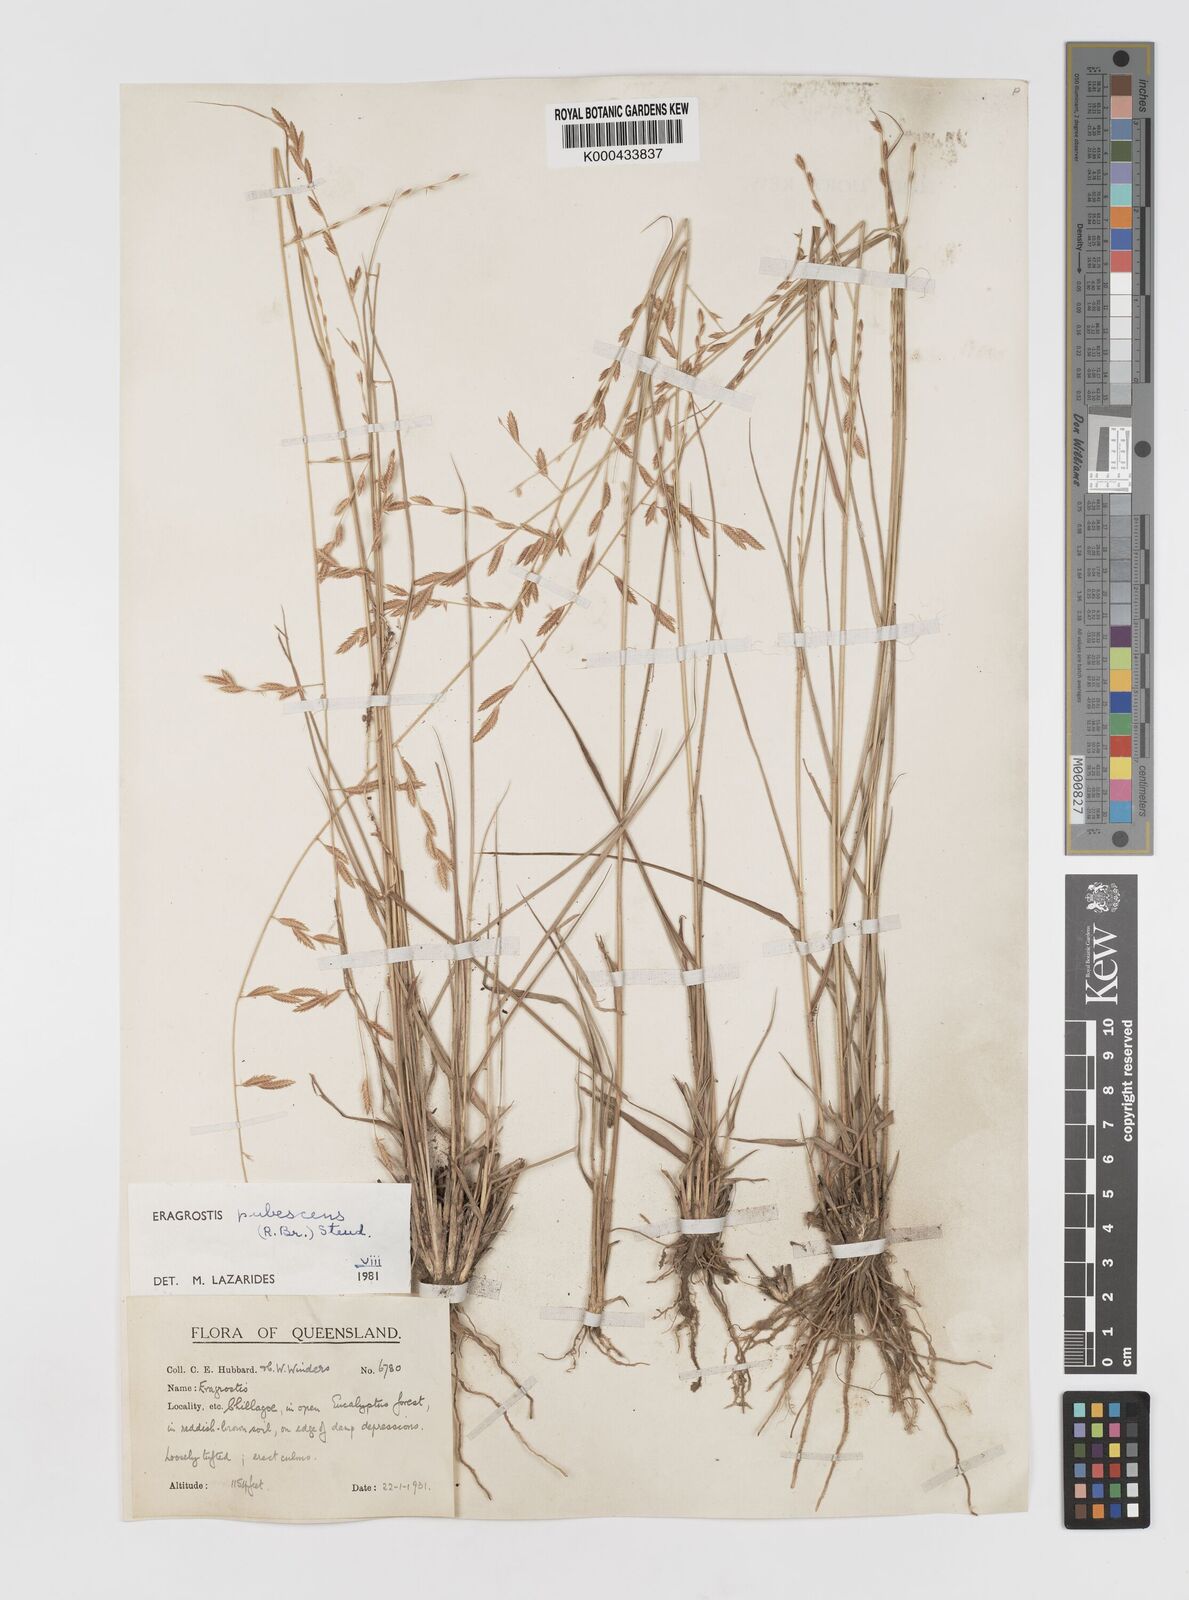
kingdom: Plantae
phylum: Tracheophyta
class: Liliopsida
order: Poales
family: Poaceae
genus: Eragrostis
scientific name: Eragrostis pubescens
